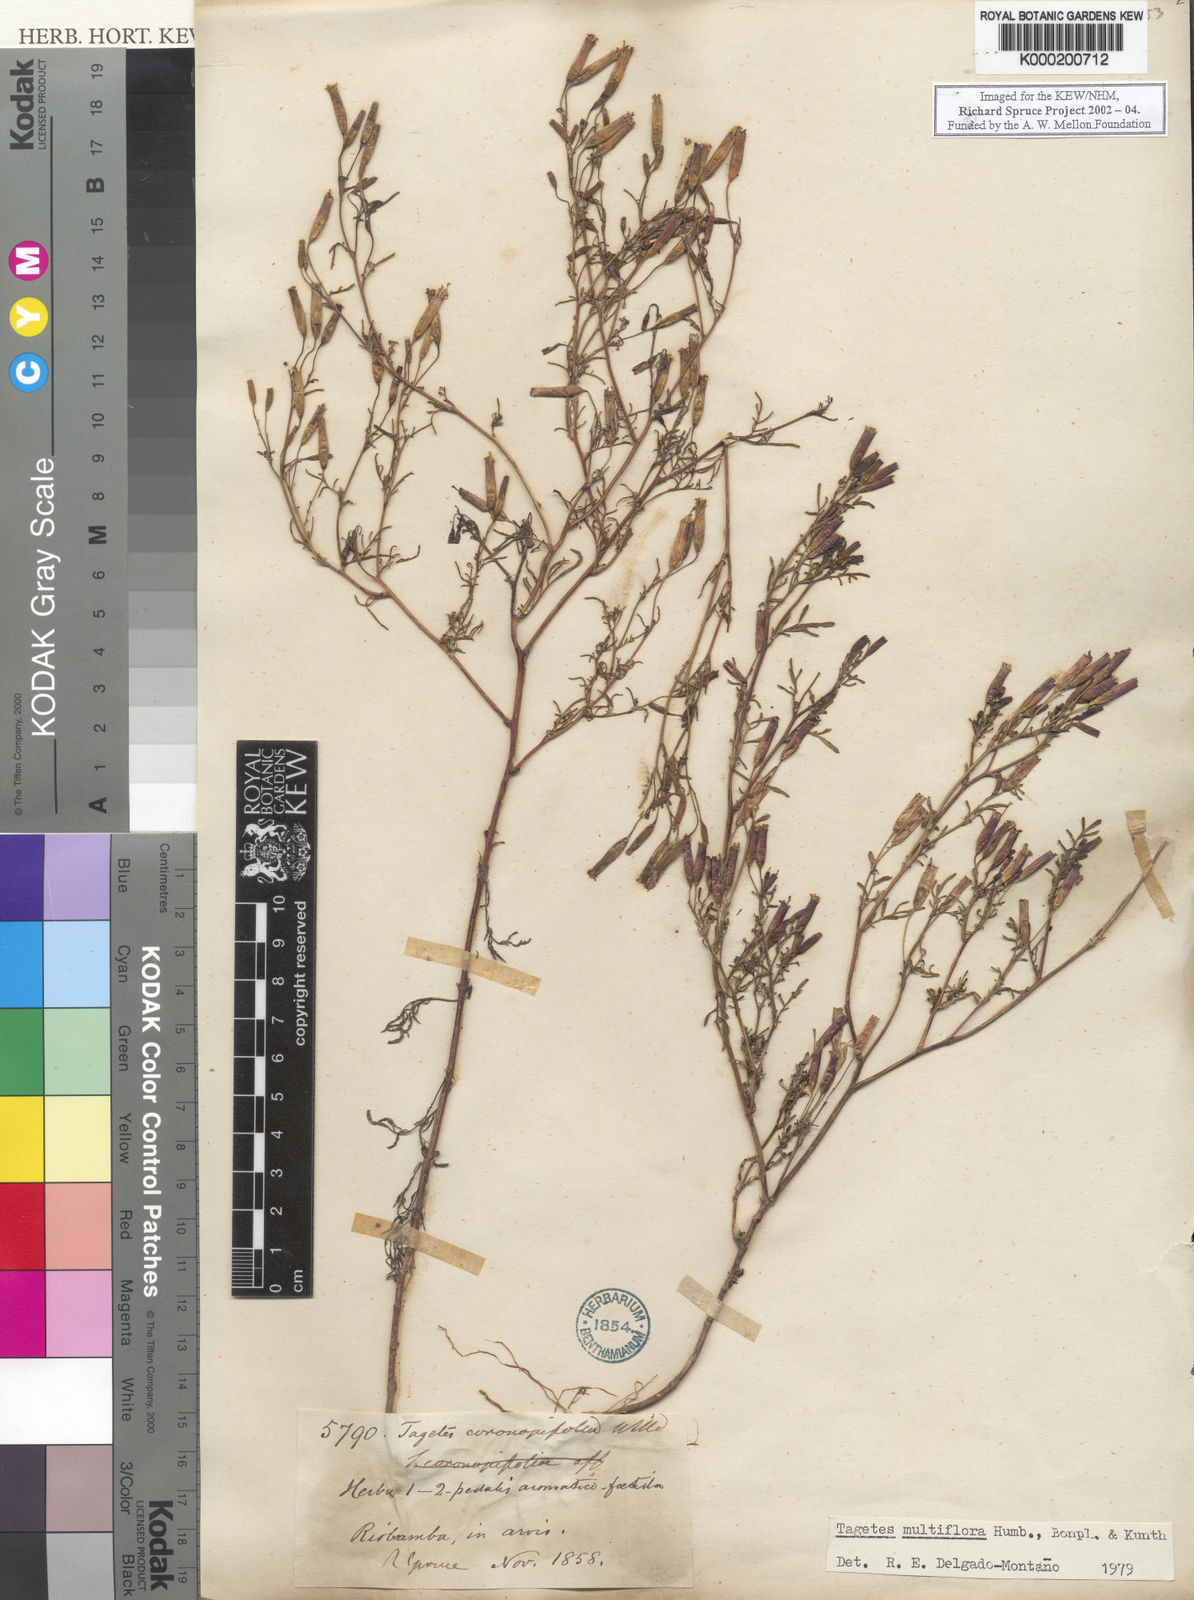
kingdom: Plantae
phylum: Tracheophyta
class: Magnoliopsida
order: Asterales
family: Asteraceae
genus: Tagetes
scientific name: Tagetes
